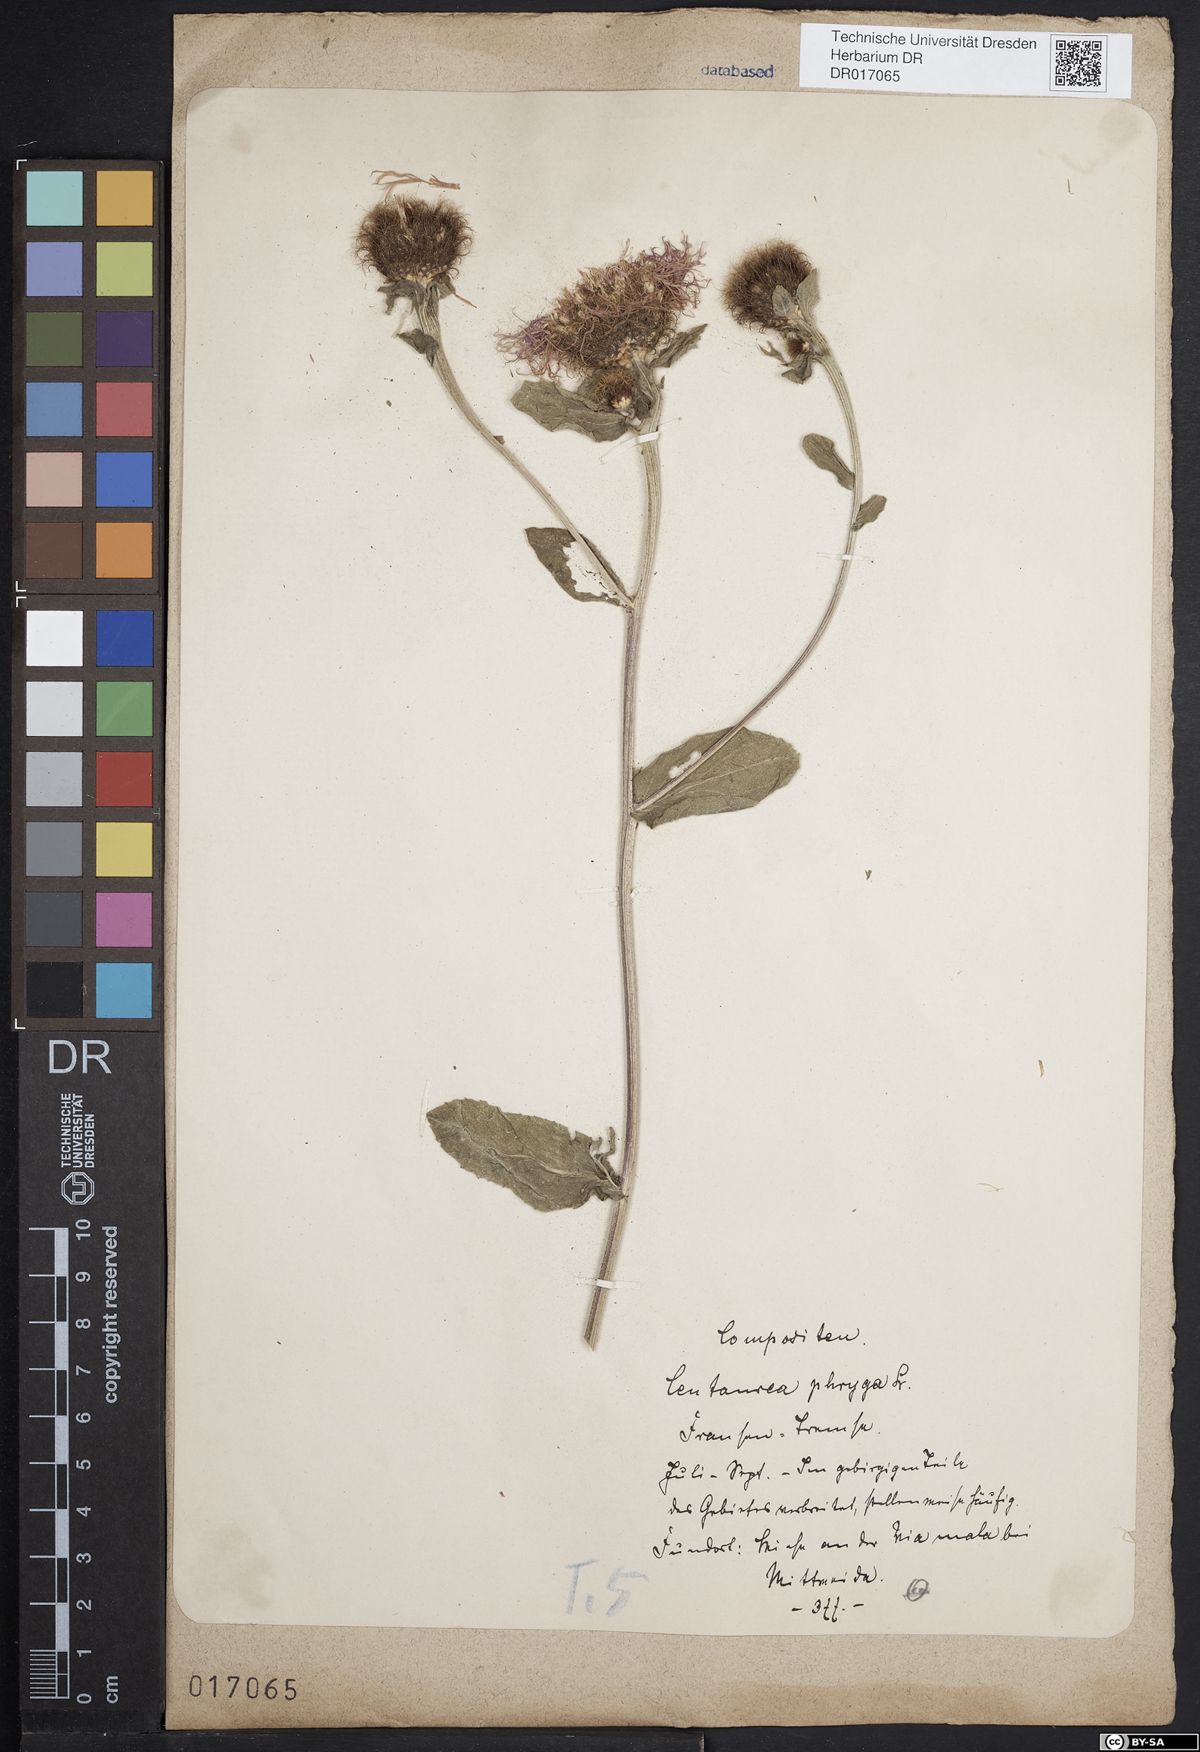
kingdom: Plantae
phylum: Tracheophyta
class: Magnoliopsida
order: Asterales
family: Asteraceae
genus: Centaurea
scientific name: Centaurea pseudophrygia
